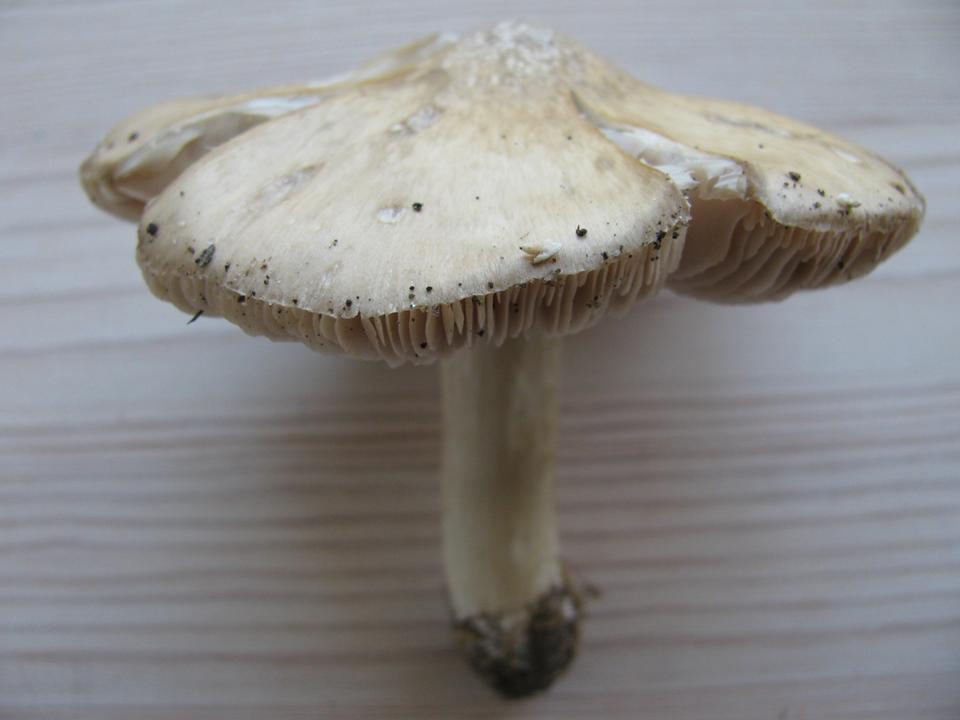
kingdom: Fungi
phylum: Basidiomycota
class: Agaricomycetes
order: Agaricales
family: Entolomataceae
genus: Entoloma
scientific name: Entoloma prunuloides
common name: mel-rødblad
